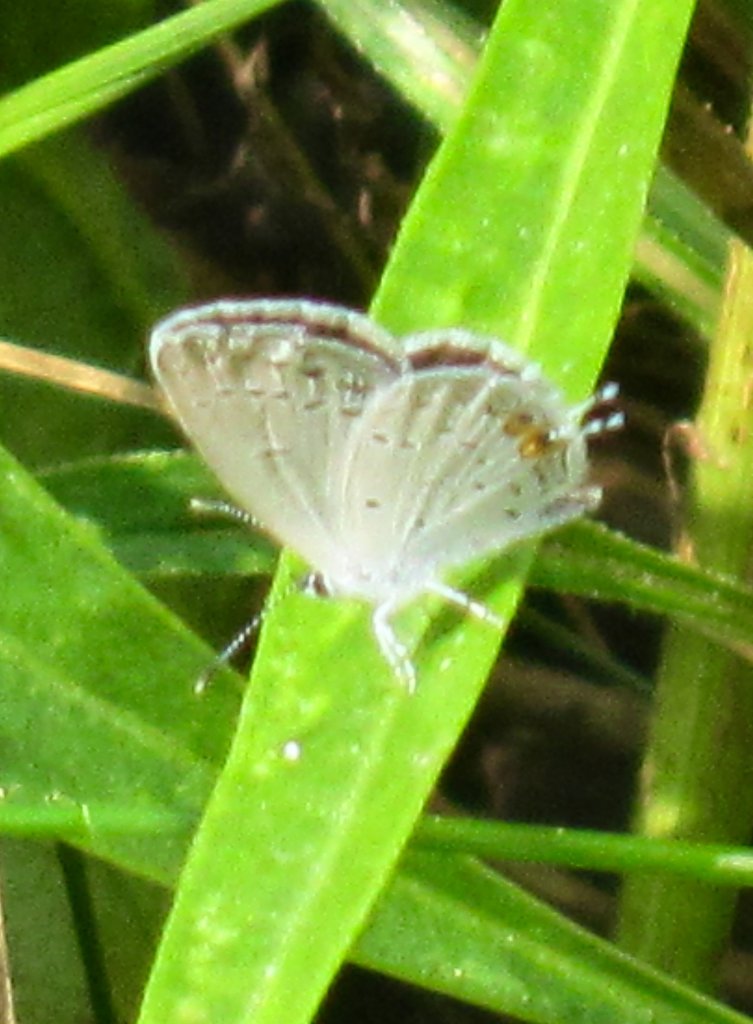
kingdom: Animalia
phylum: Arthropoda
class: Insecta
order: Lepidoptera
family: Lycaenidae
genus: Elkalyce
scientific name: Elkalyce comyntas
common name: Eastern Tailed-Blue
